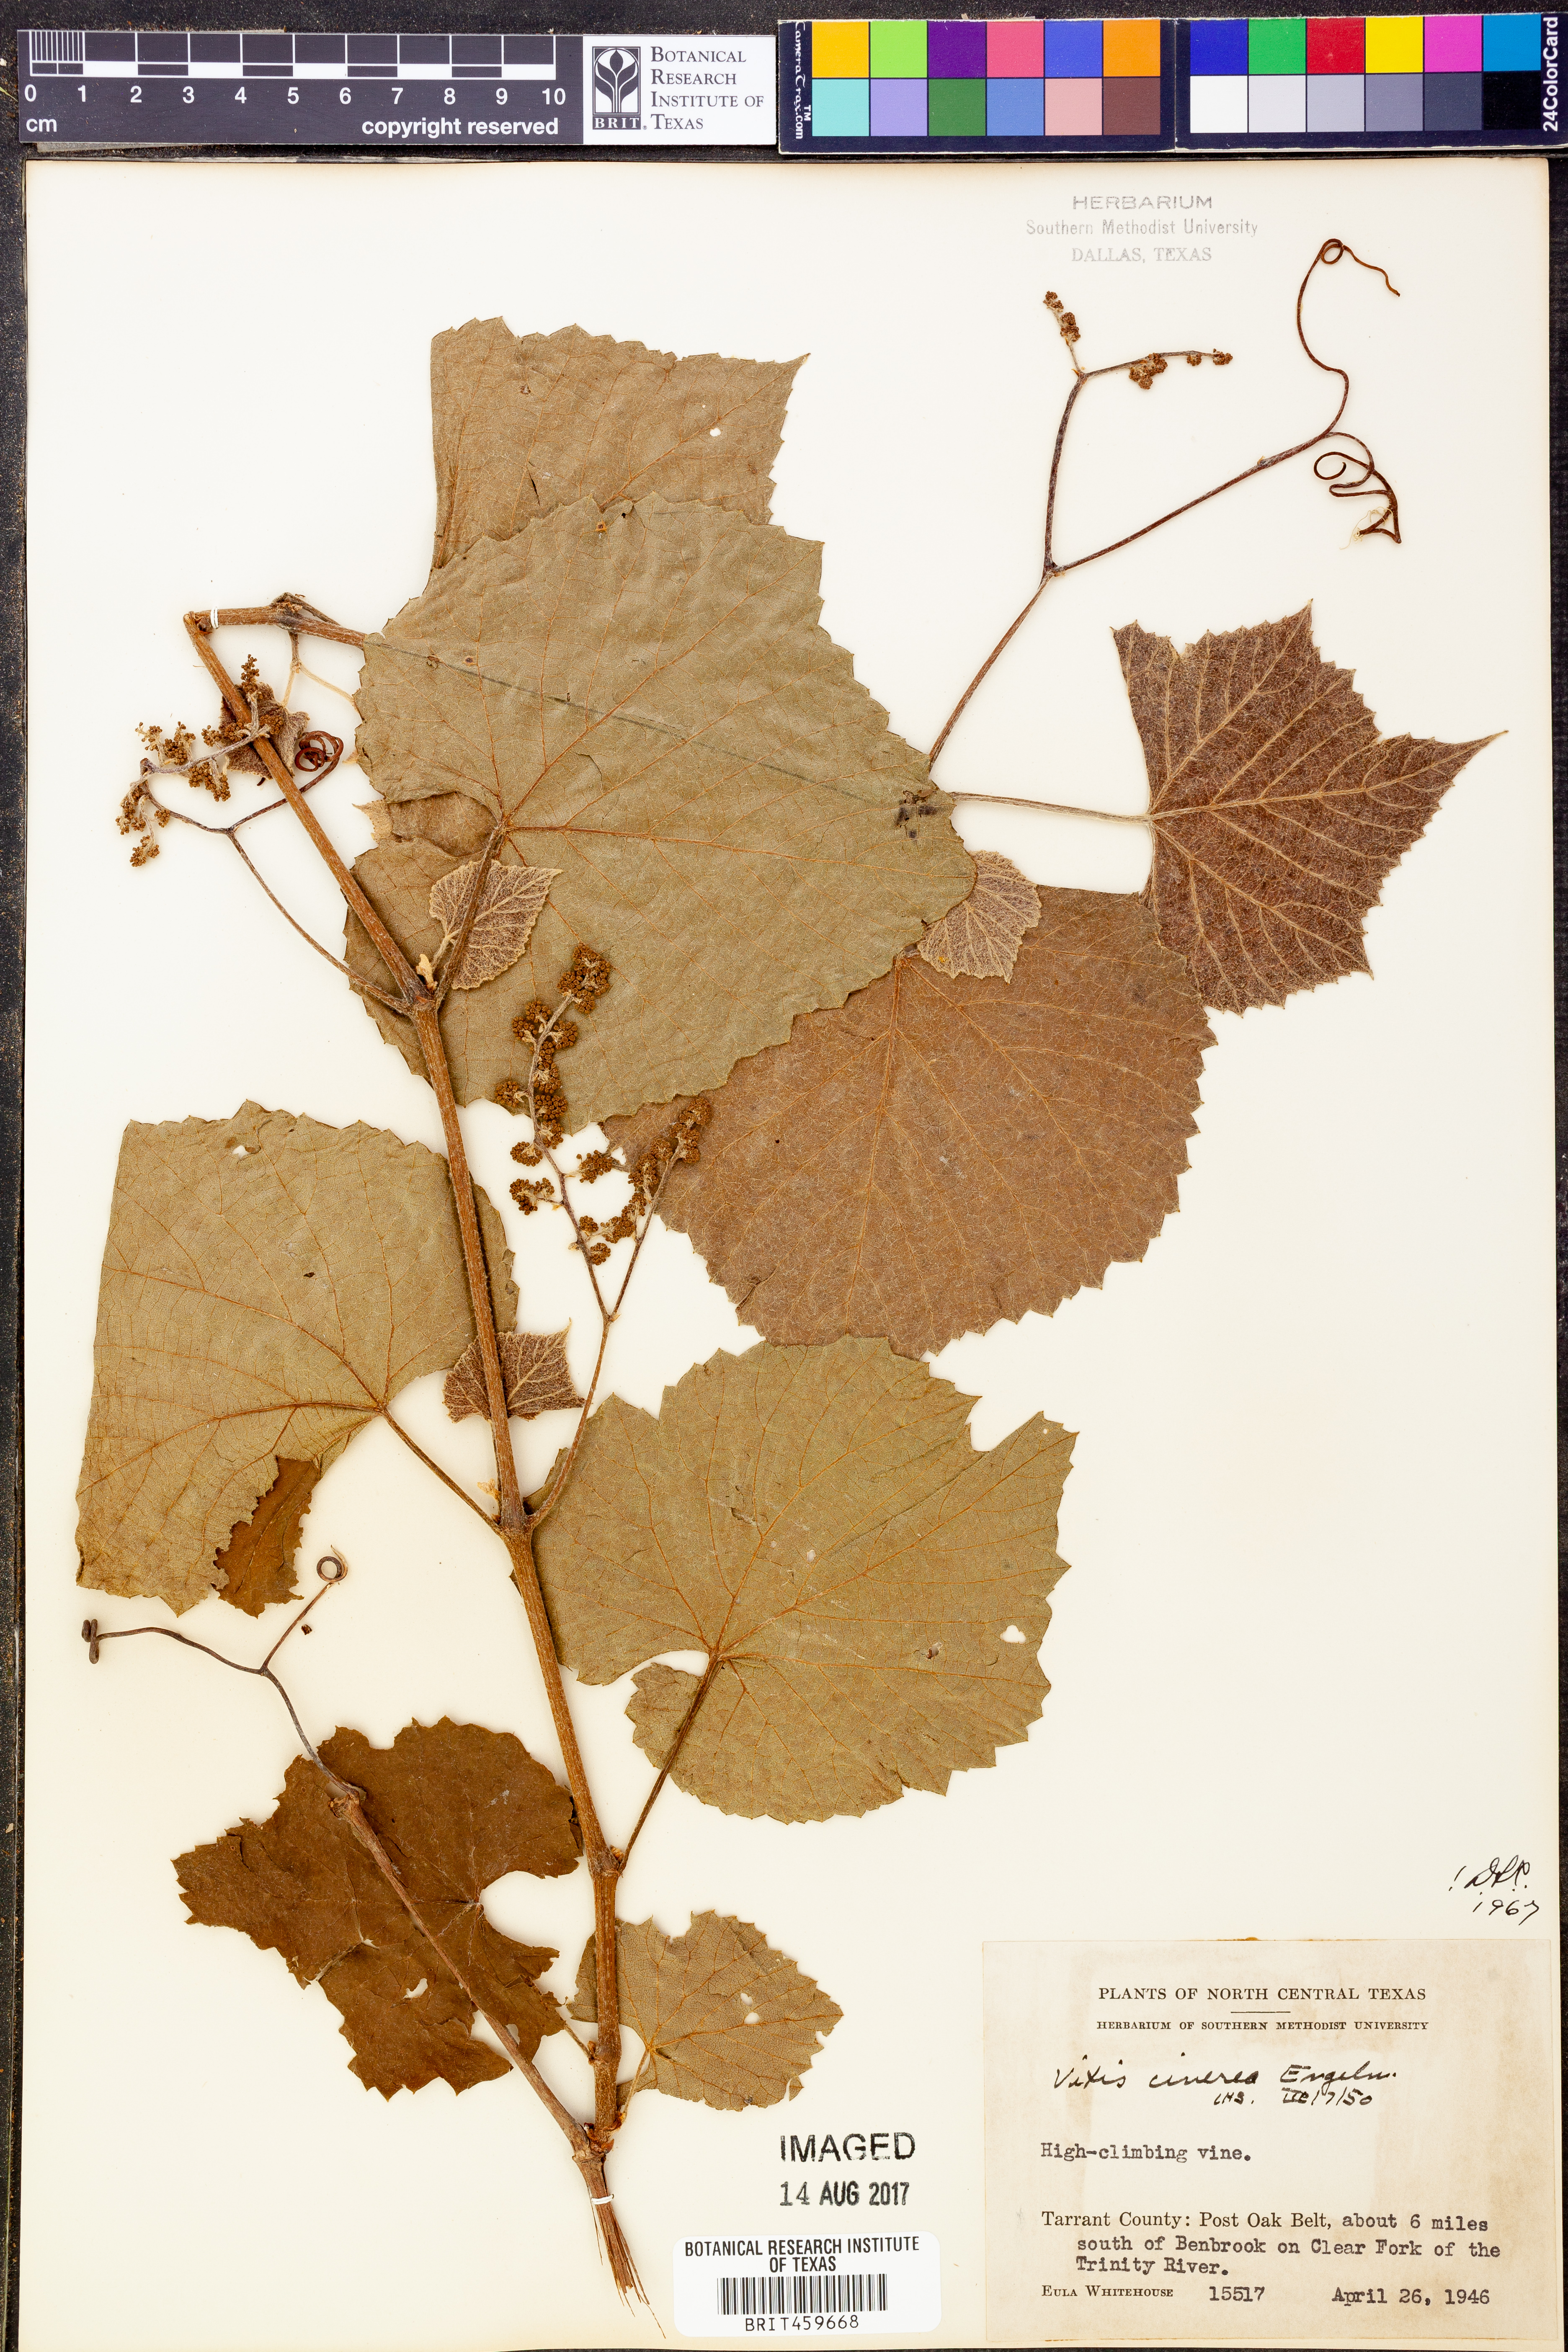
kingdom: Plantae
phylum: Tracheophyta
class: Magnoliopsida
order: Vitales
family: Vitaceae
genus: Vitis
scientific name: Vitis cinerea
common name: Ashy grape
